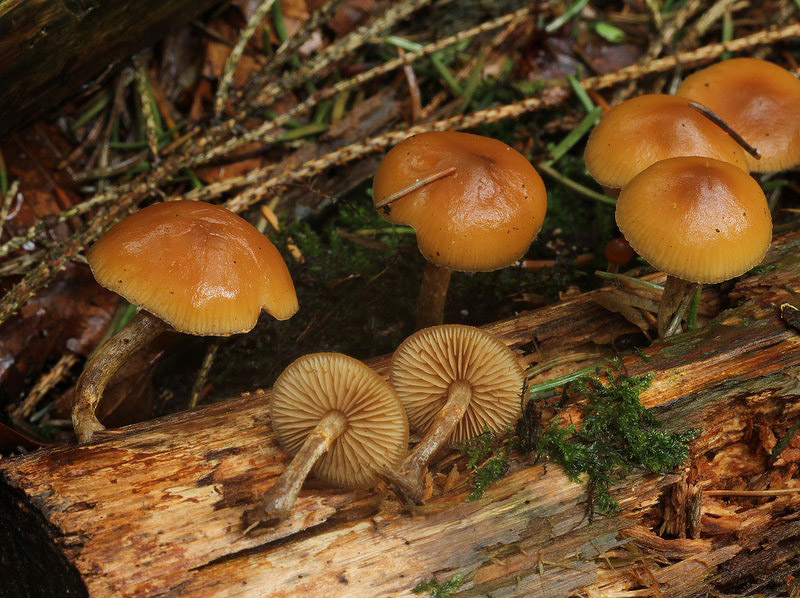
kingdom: Fungi
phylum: Basidiomycota
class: Agaricomycetes
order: Agaricales
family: Hymenogastraceae
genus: Galerina
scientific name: Galerina marginata
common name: randbæltet hjelmhat
